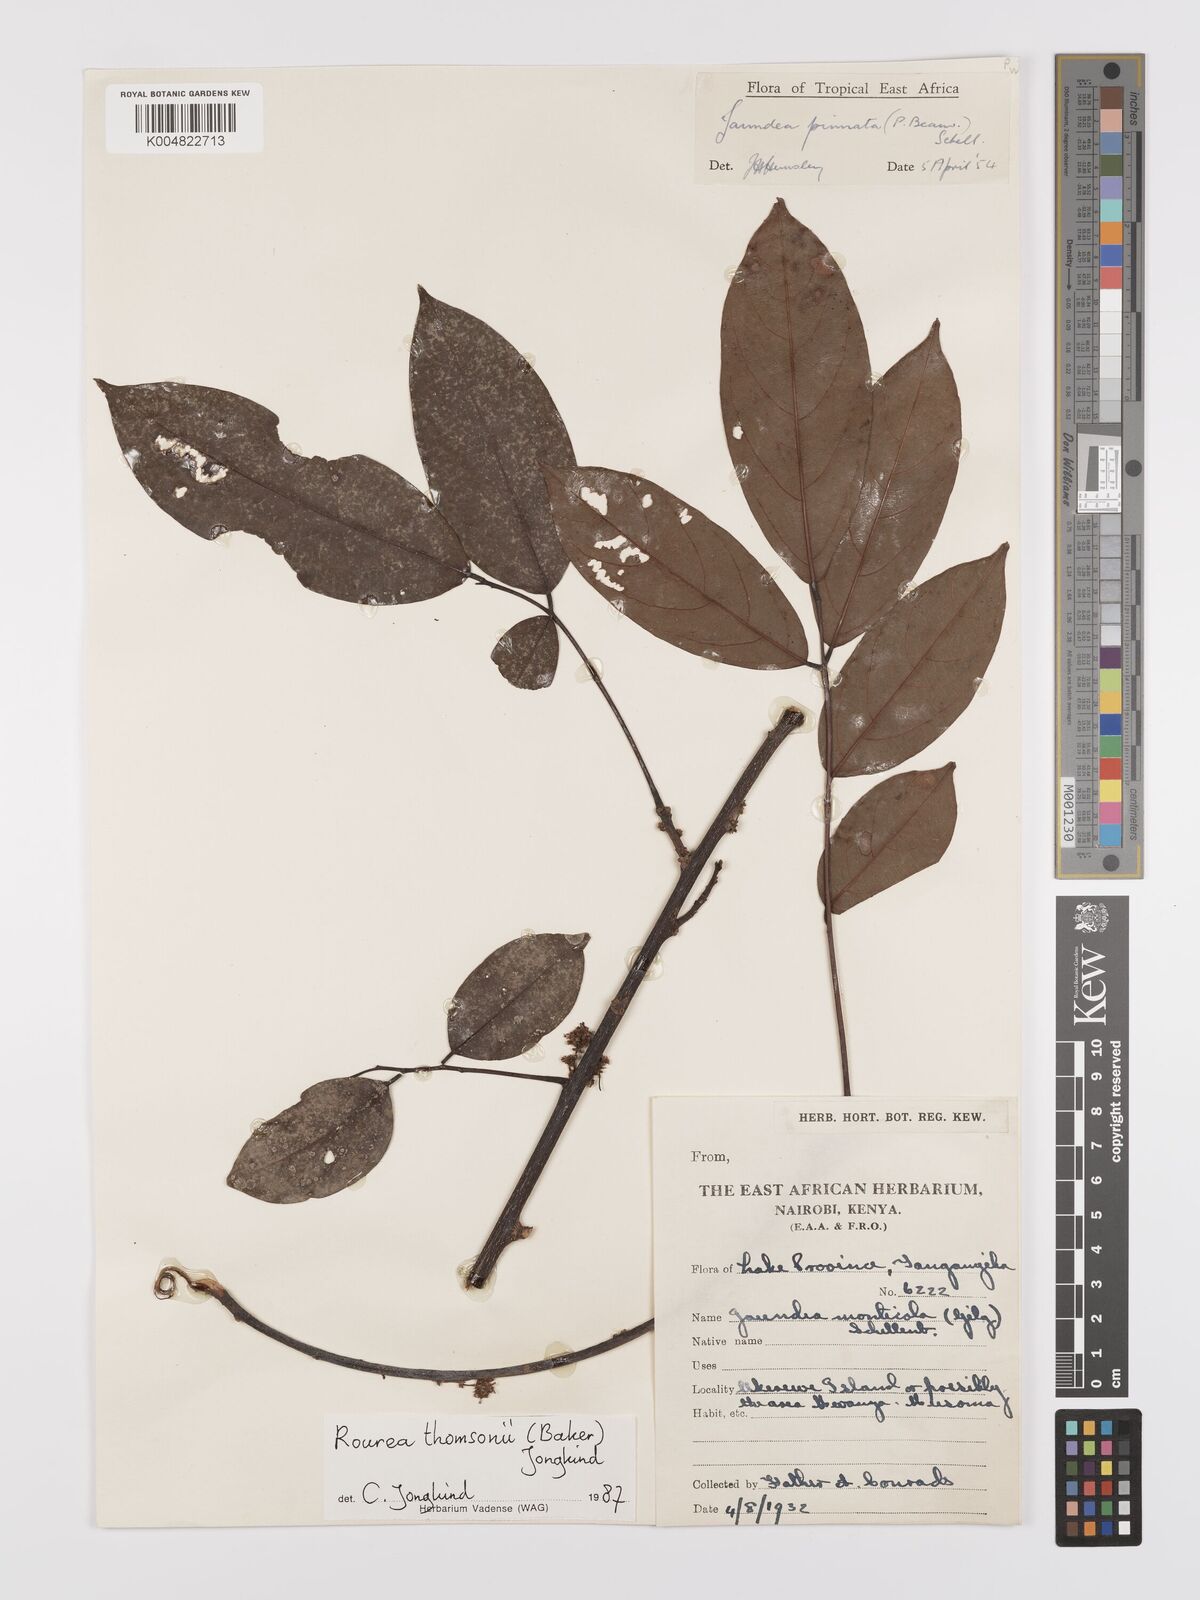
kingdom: Plantae
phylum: Tracheophyta
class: Magnoliopsida
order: Oxalidales
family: Connaraceae
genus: Rourea
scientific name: Rourea pinnata
